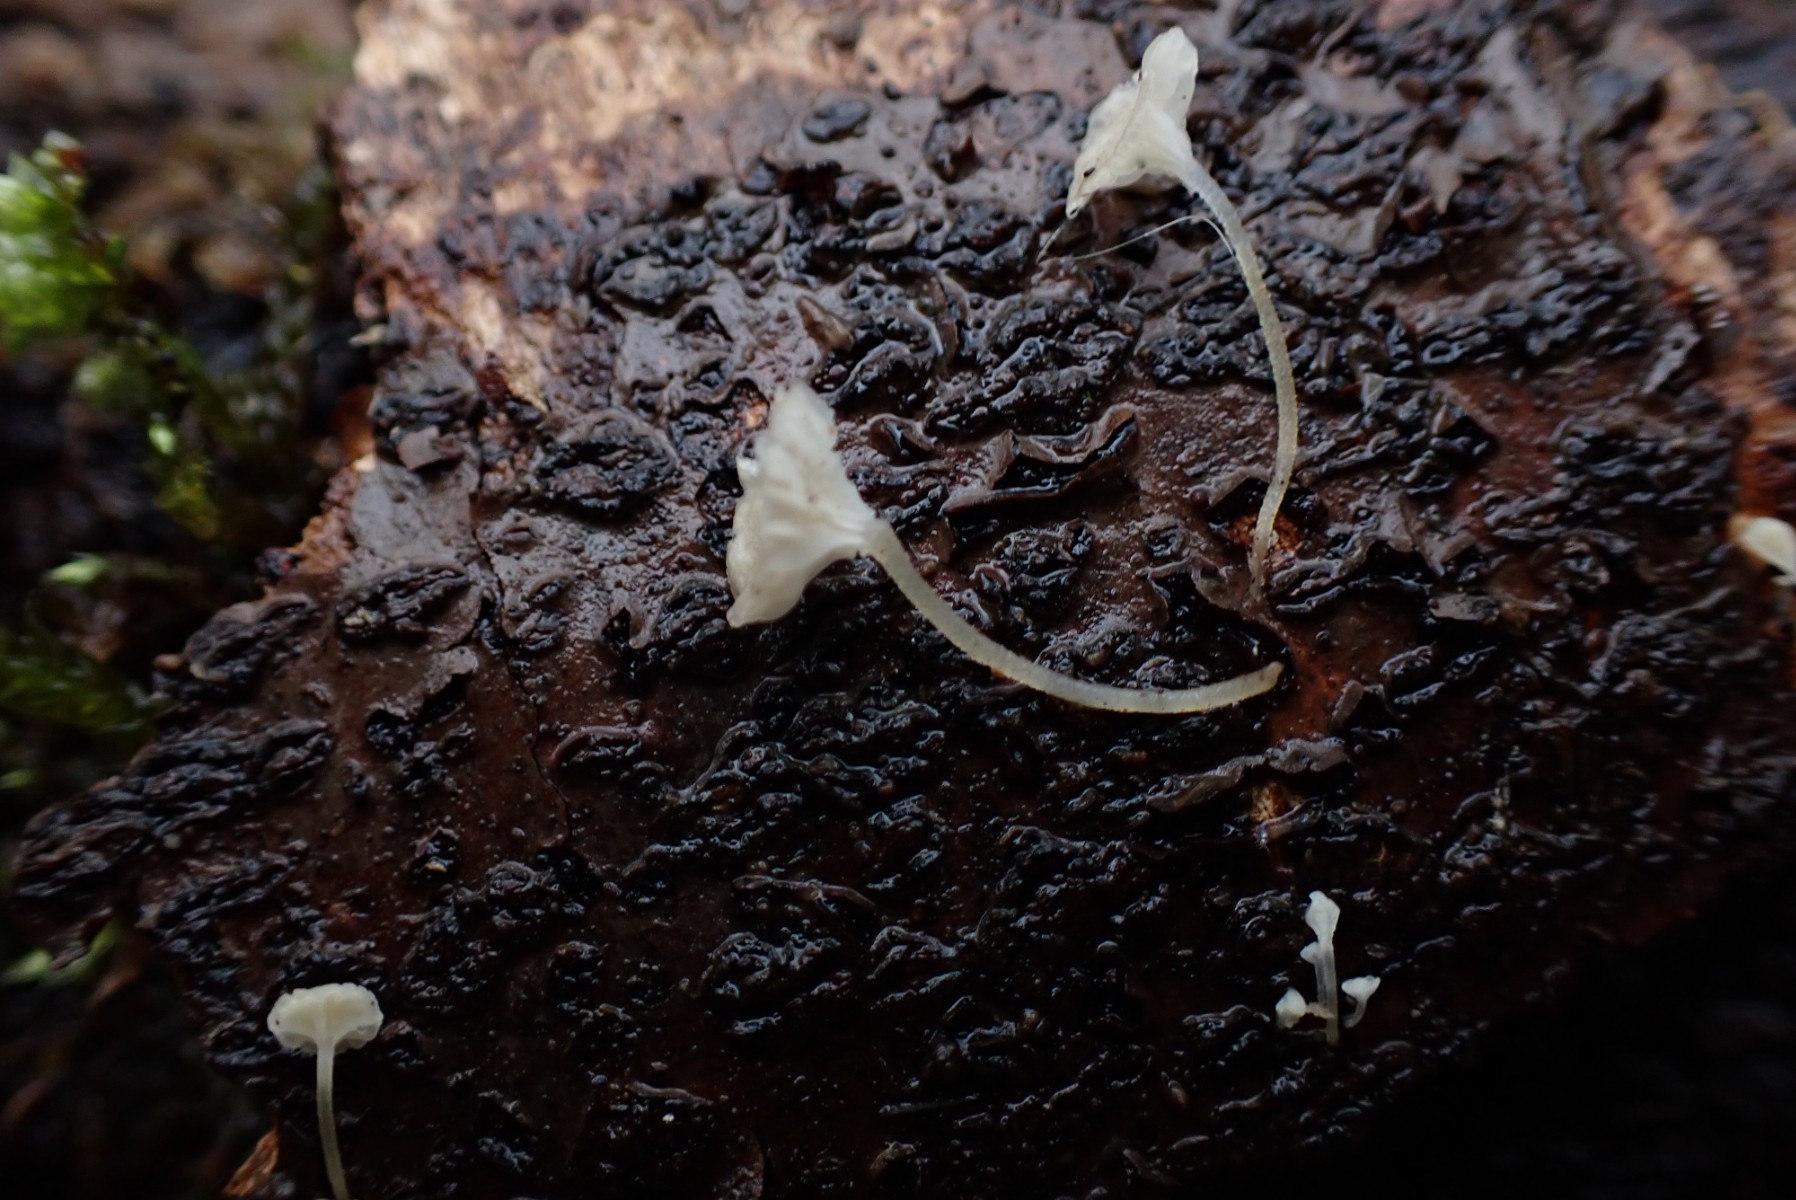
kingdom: Fungi
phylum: Basidiomycota
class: Agaricomycetes
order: Agaricales
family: Porotheleaceae
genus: Phloeomana
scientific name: Phloeomana speirea
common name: kvist-huesvamp
